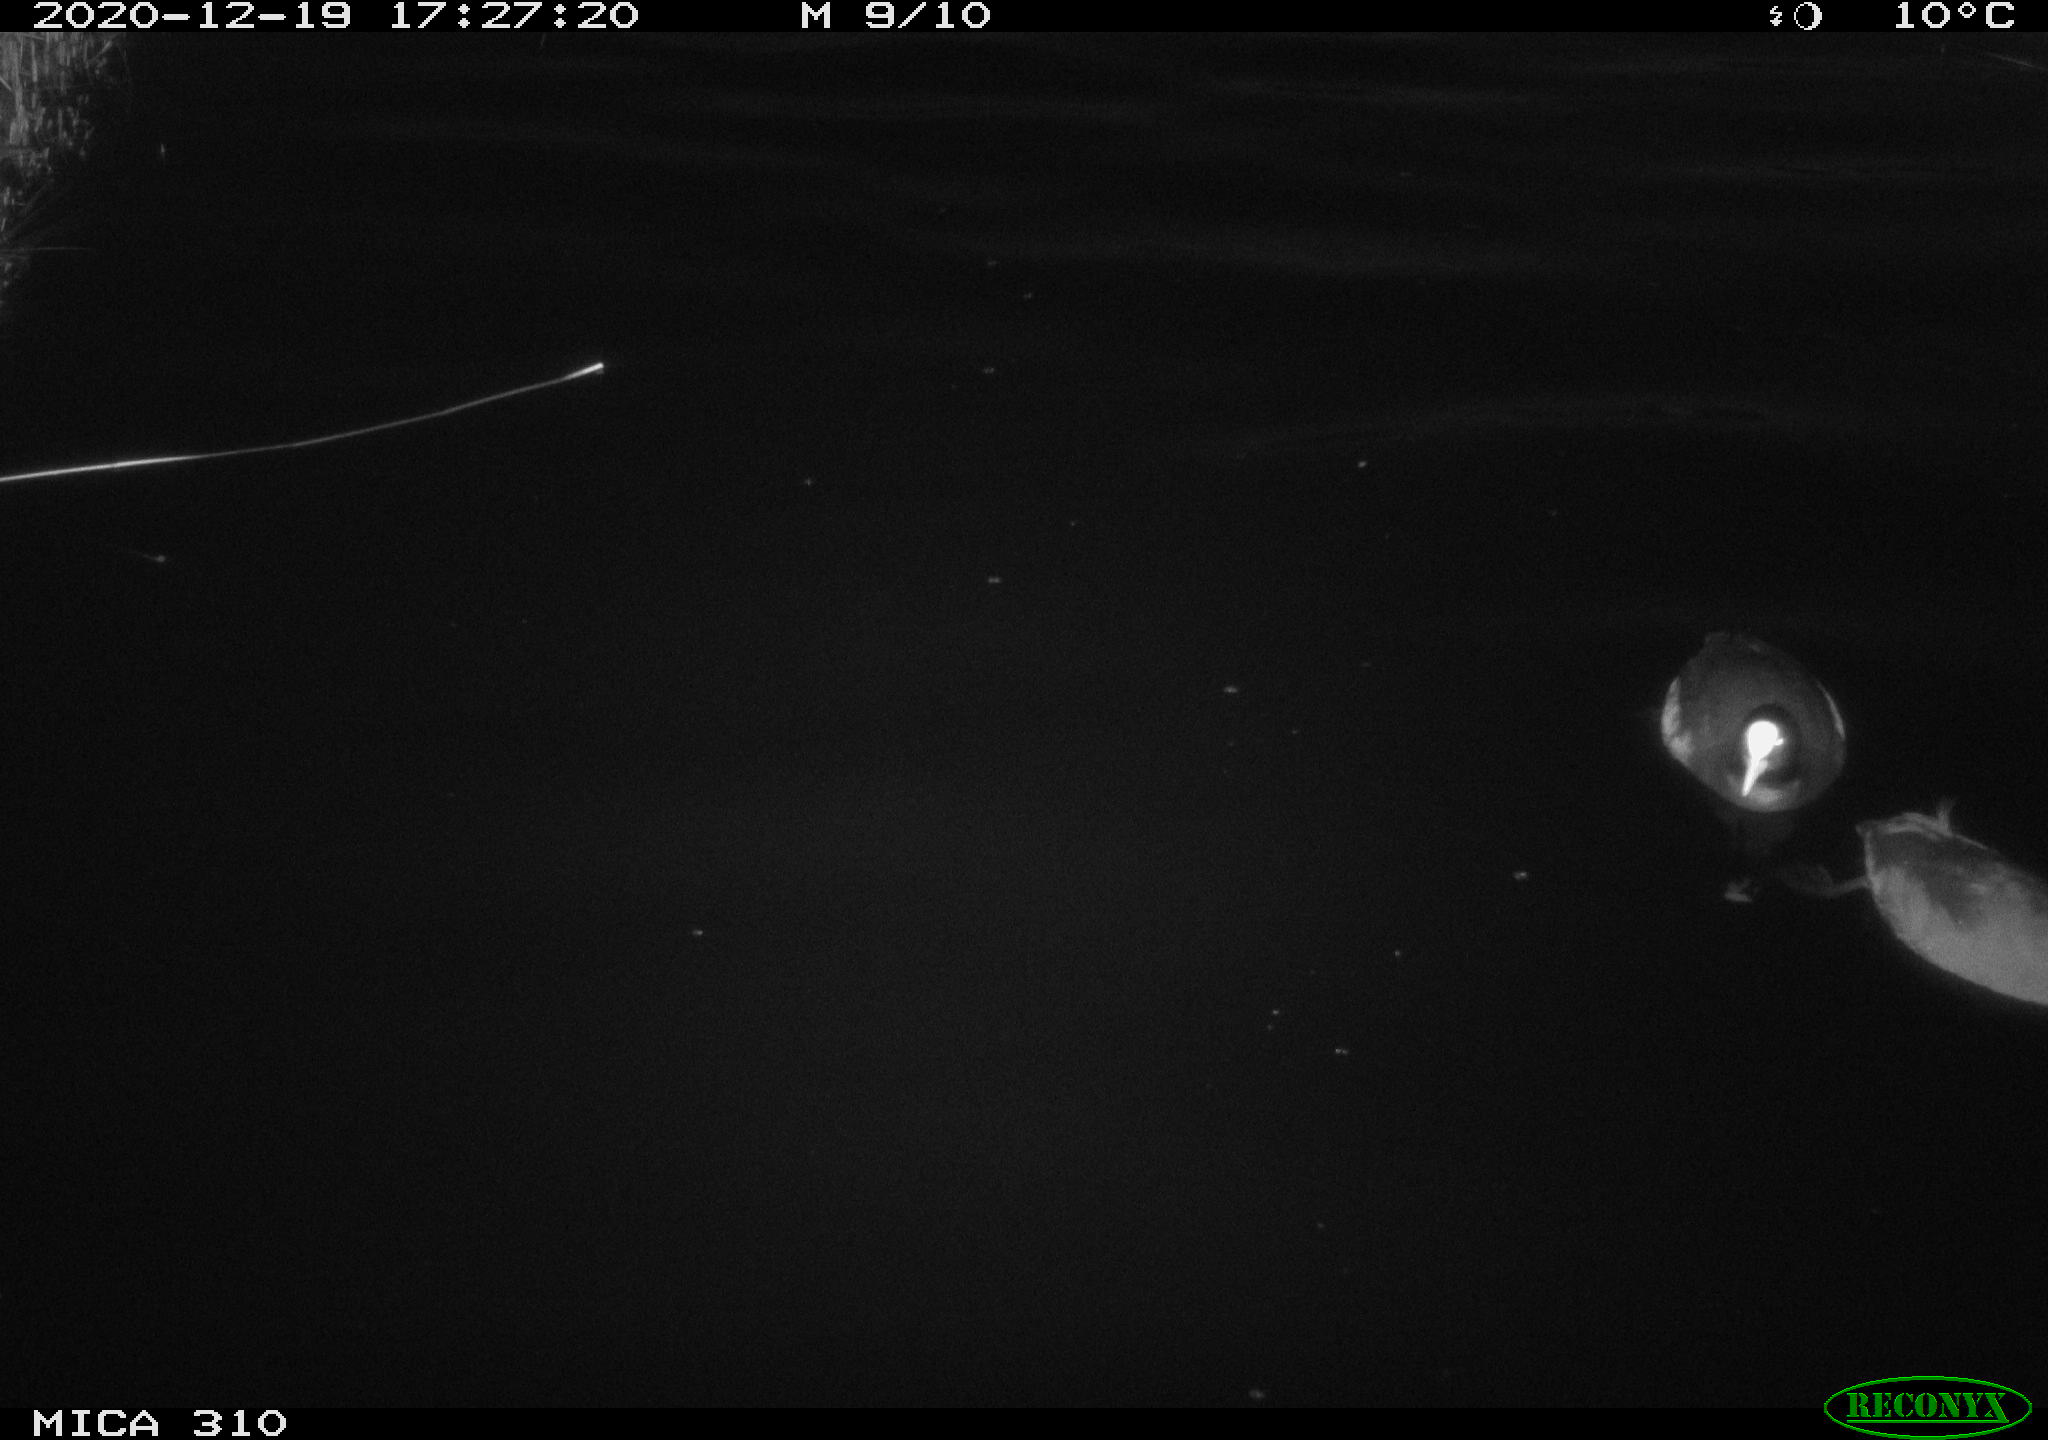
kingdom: Animalia
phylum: Chordata
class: Aves
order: Gruiformes
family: Rallidae
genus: Fulica
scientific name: Fulica atra
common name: Eurasian coot
